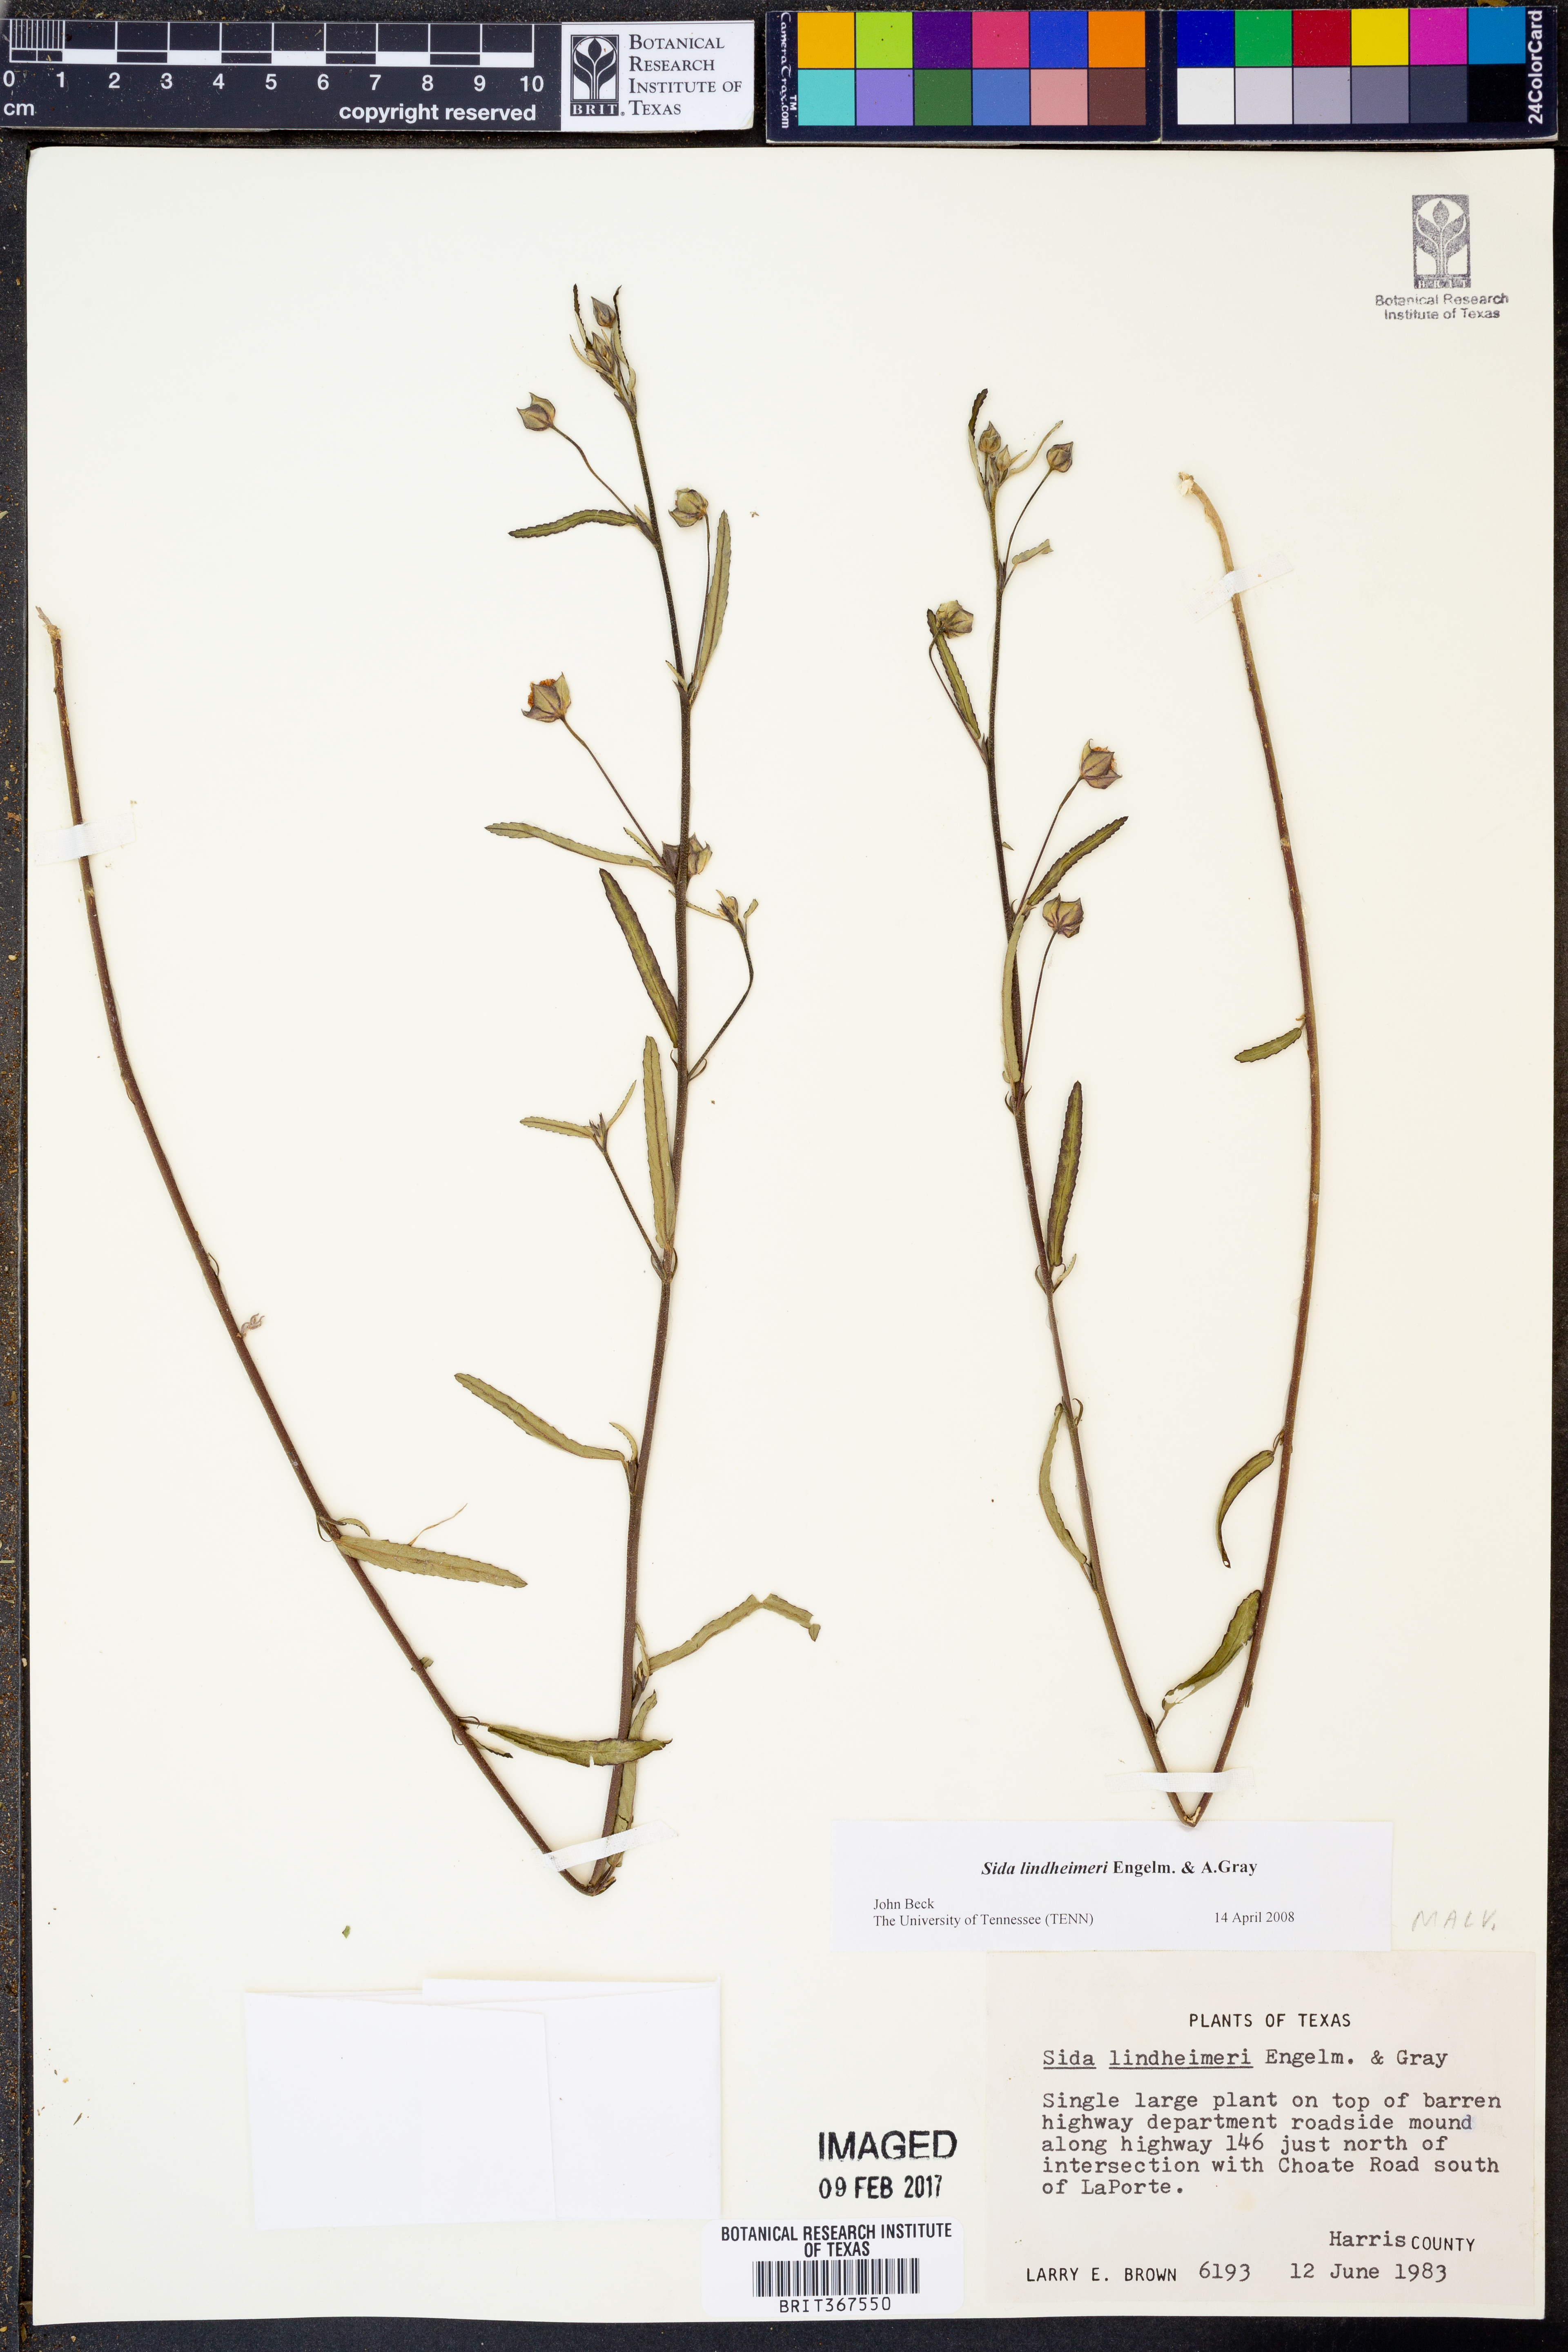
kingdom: Plantae
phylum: Tracheophyta
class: Magnoliopsida
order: Malvales
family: Malvaceae
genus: Sida
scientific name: Sida lindheimeri
